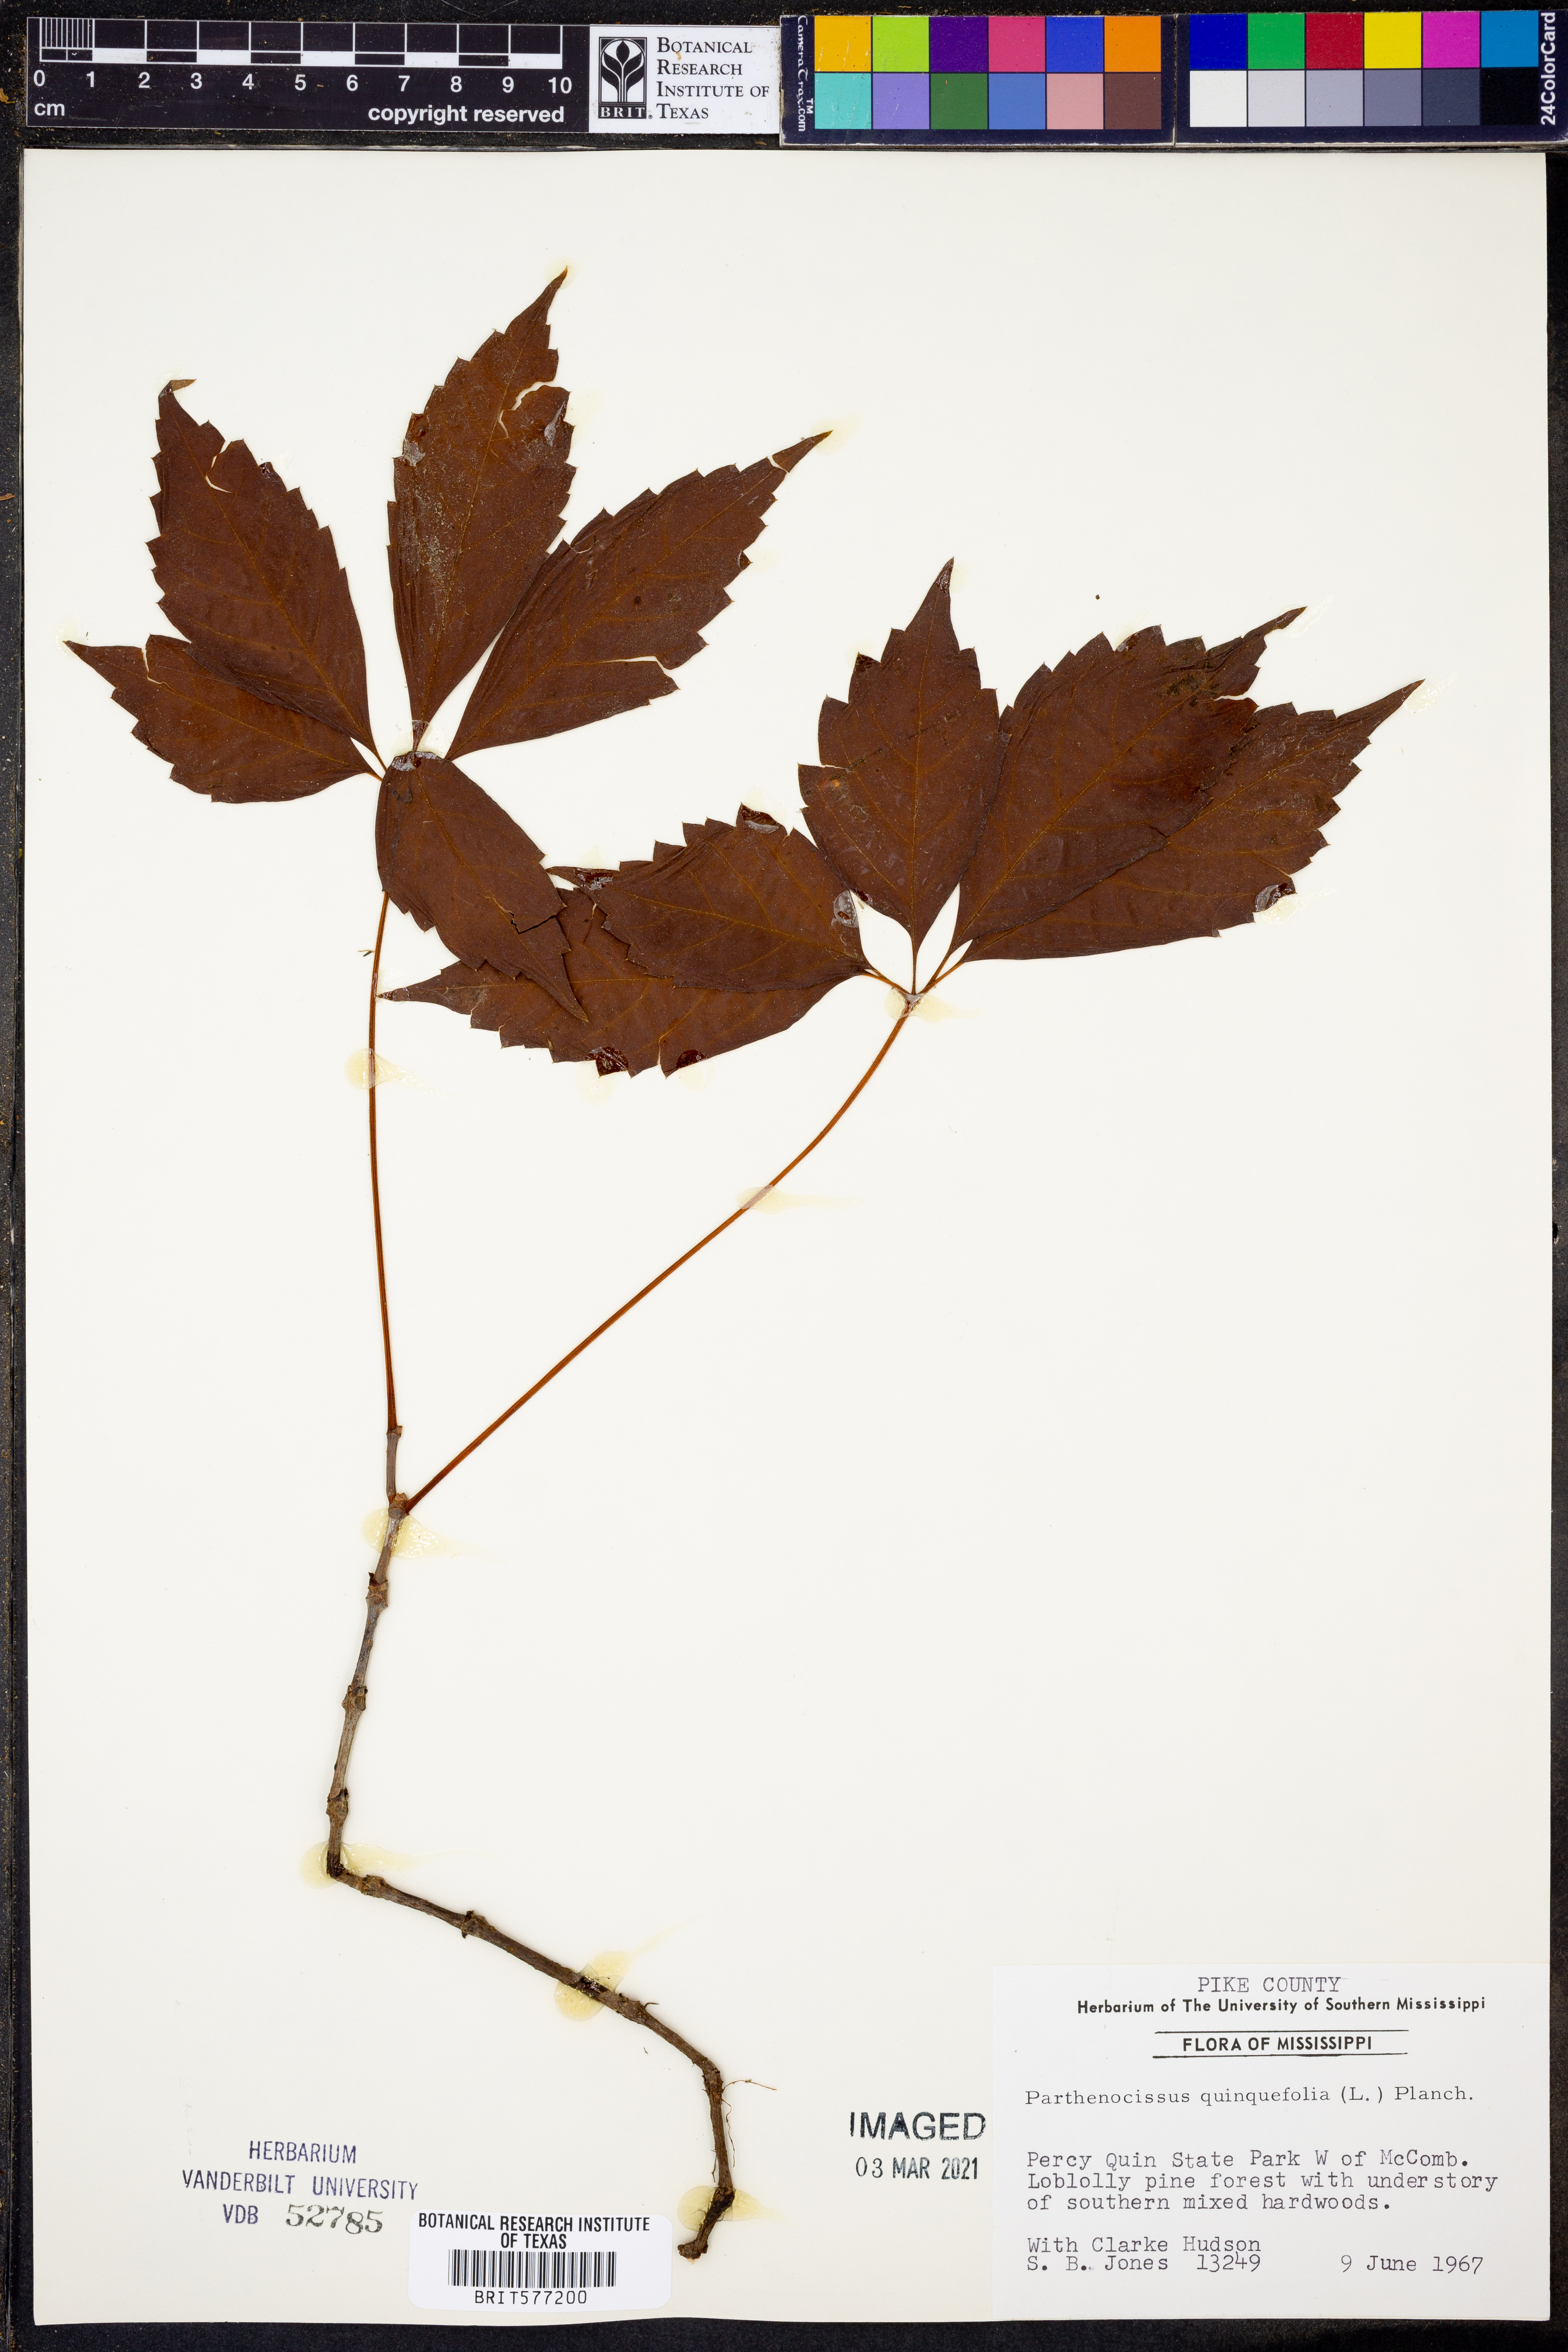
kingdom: Plantae
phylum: Tracheophyta
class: Magnoliopsida
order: Vitales
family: Vitaceae
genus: Parthenocissus
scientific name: Parthenocissus quinquefolia
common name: Virginia-creeper
